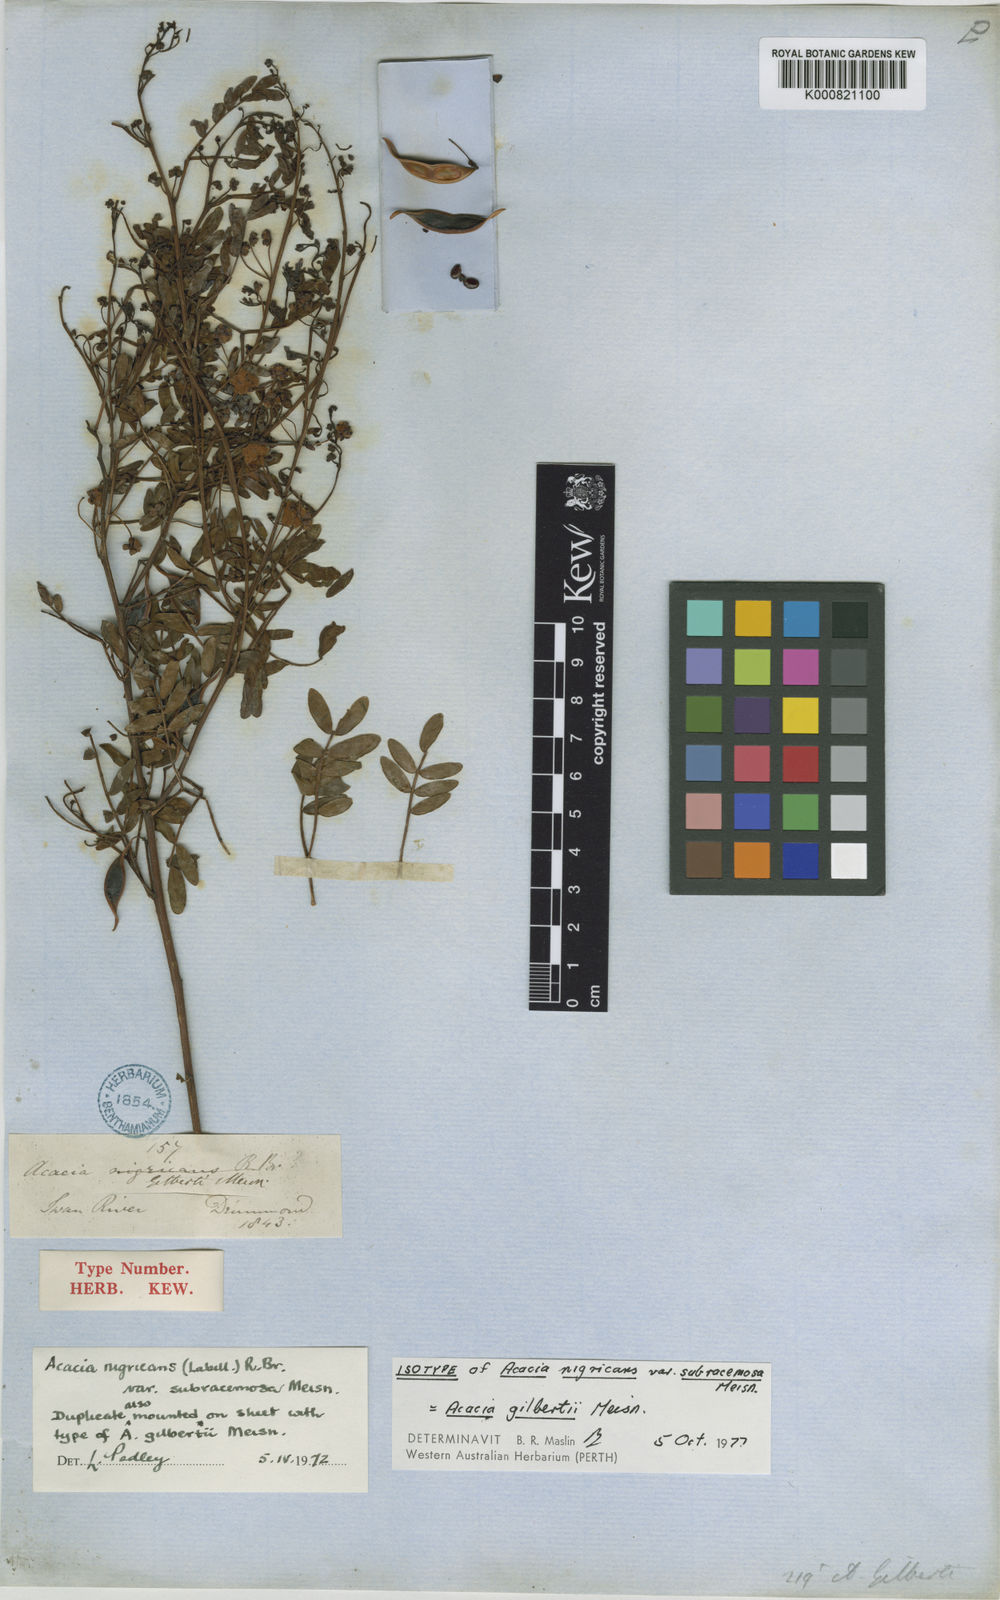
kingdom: Plantae
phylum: Tracheophyta
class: Magnoliopsida
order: Fabales
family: Fabaceae
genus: Acacia
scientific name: Acacia nigricans
